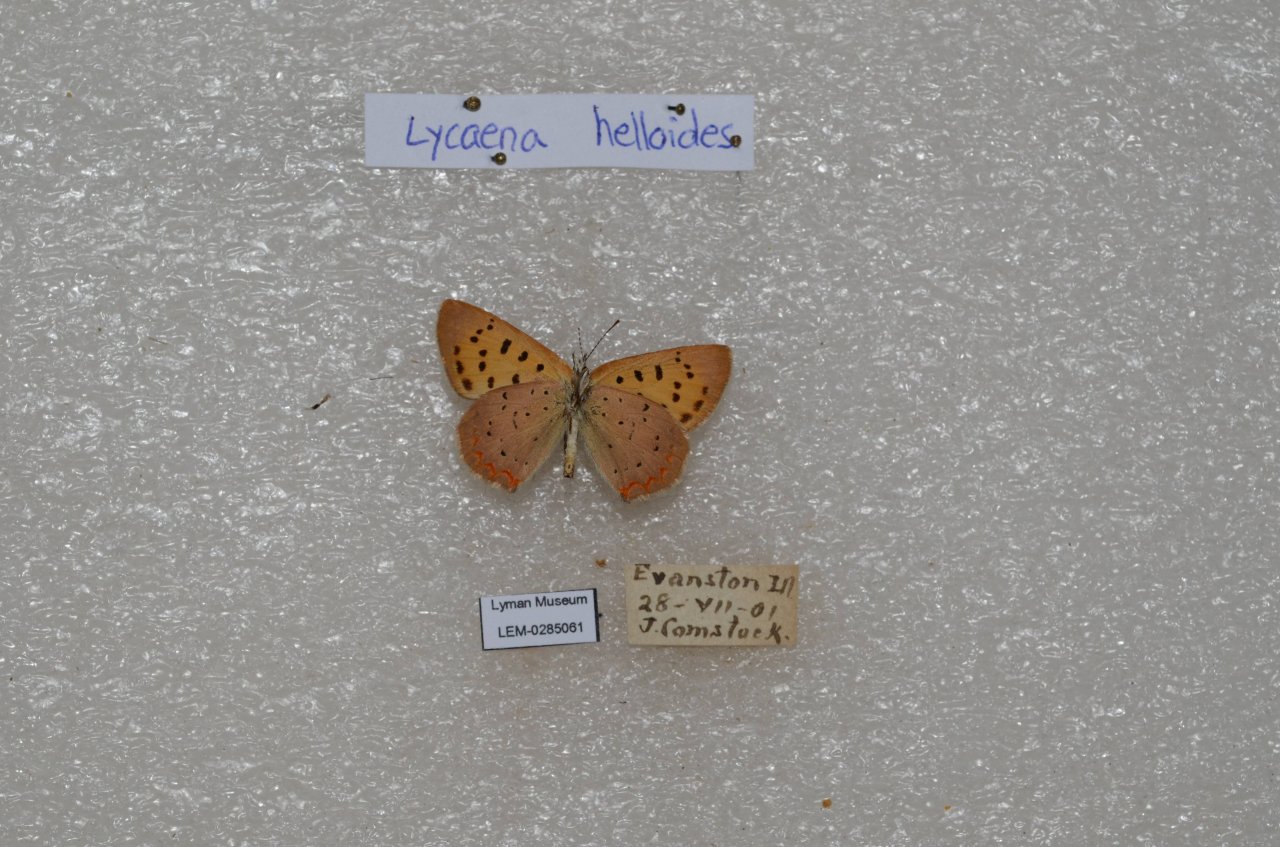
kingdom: Animalia
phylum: Arthropoda
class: Insecta
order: Lepidoptera
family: Sesiidae
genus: Sesia
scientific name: Sesia Lycaena helloides
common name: Purplish Copper
